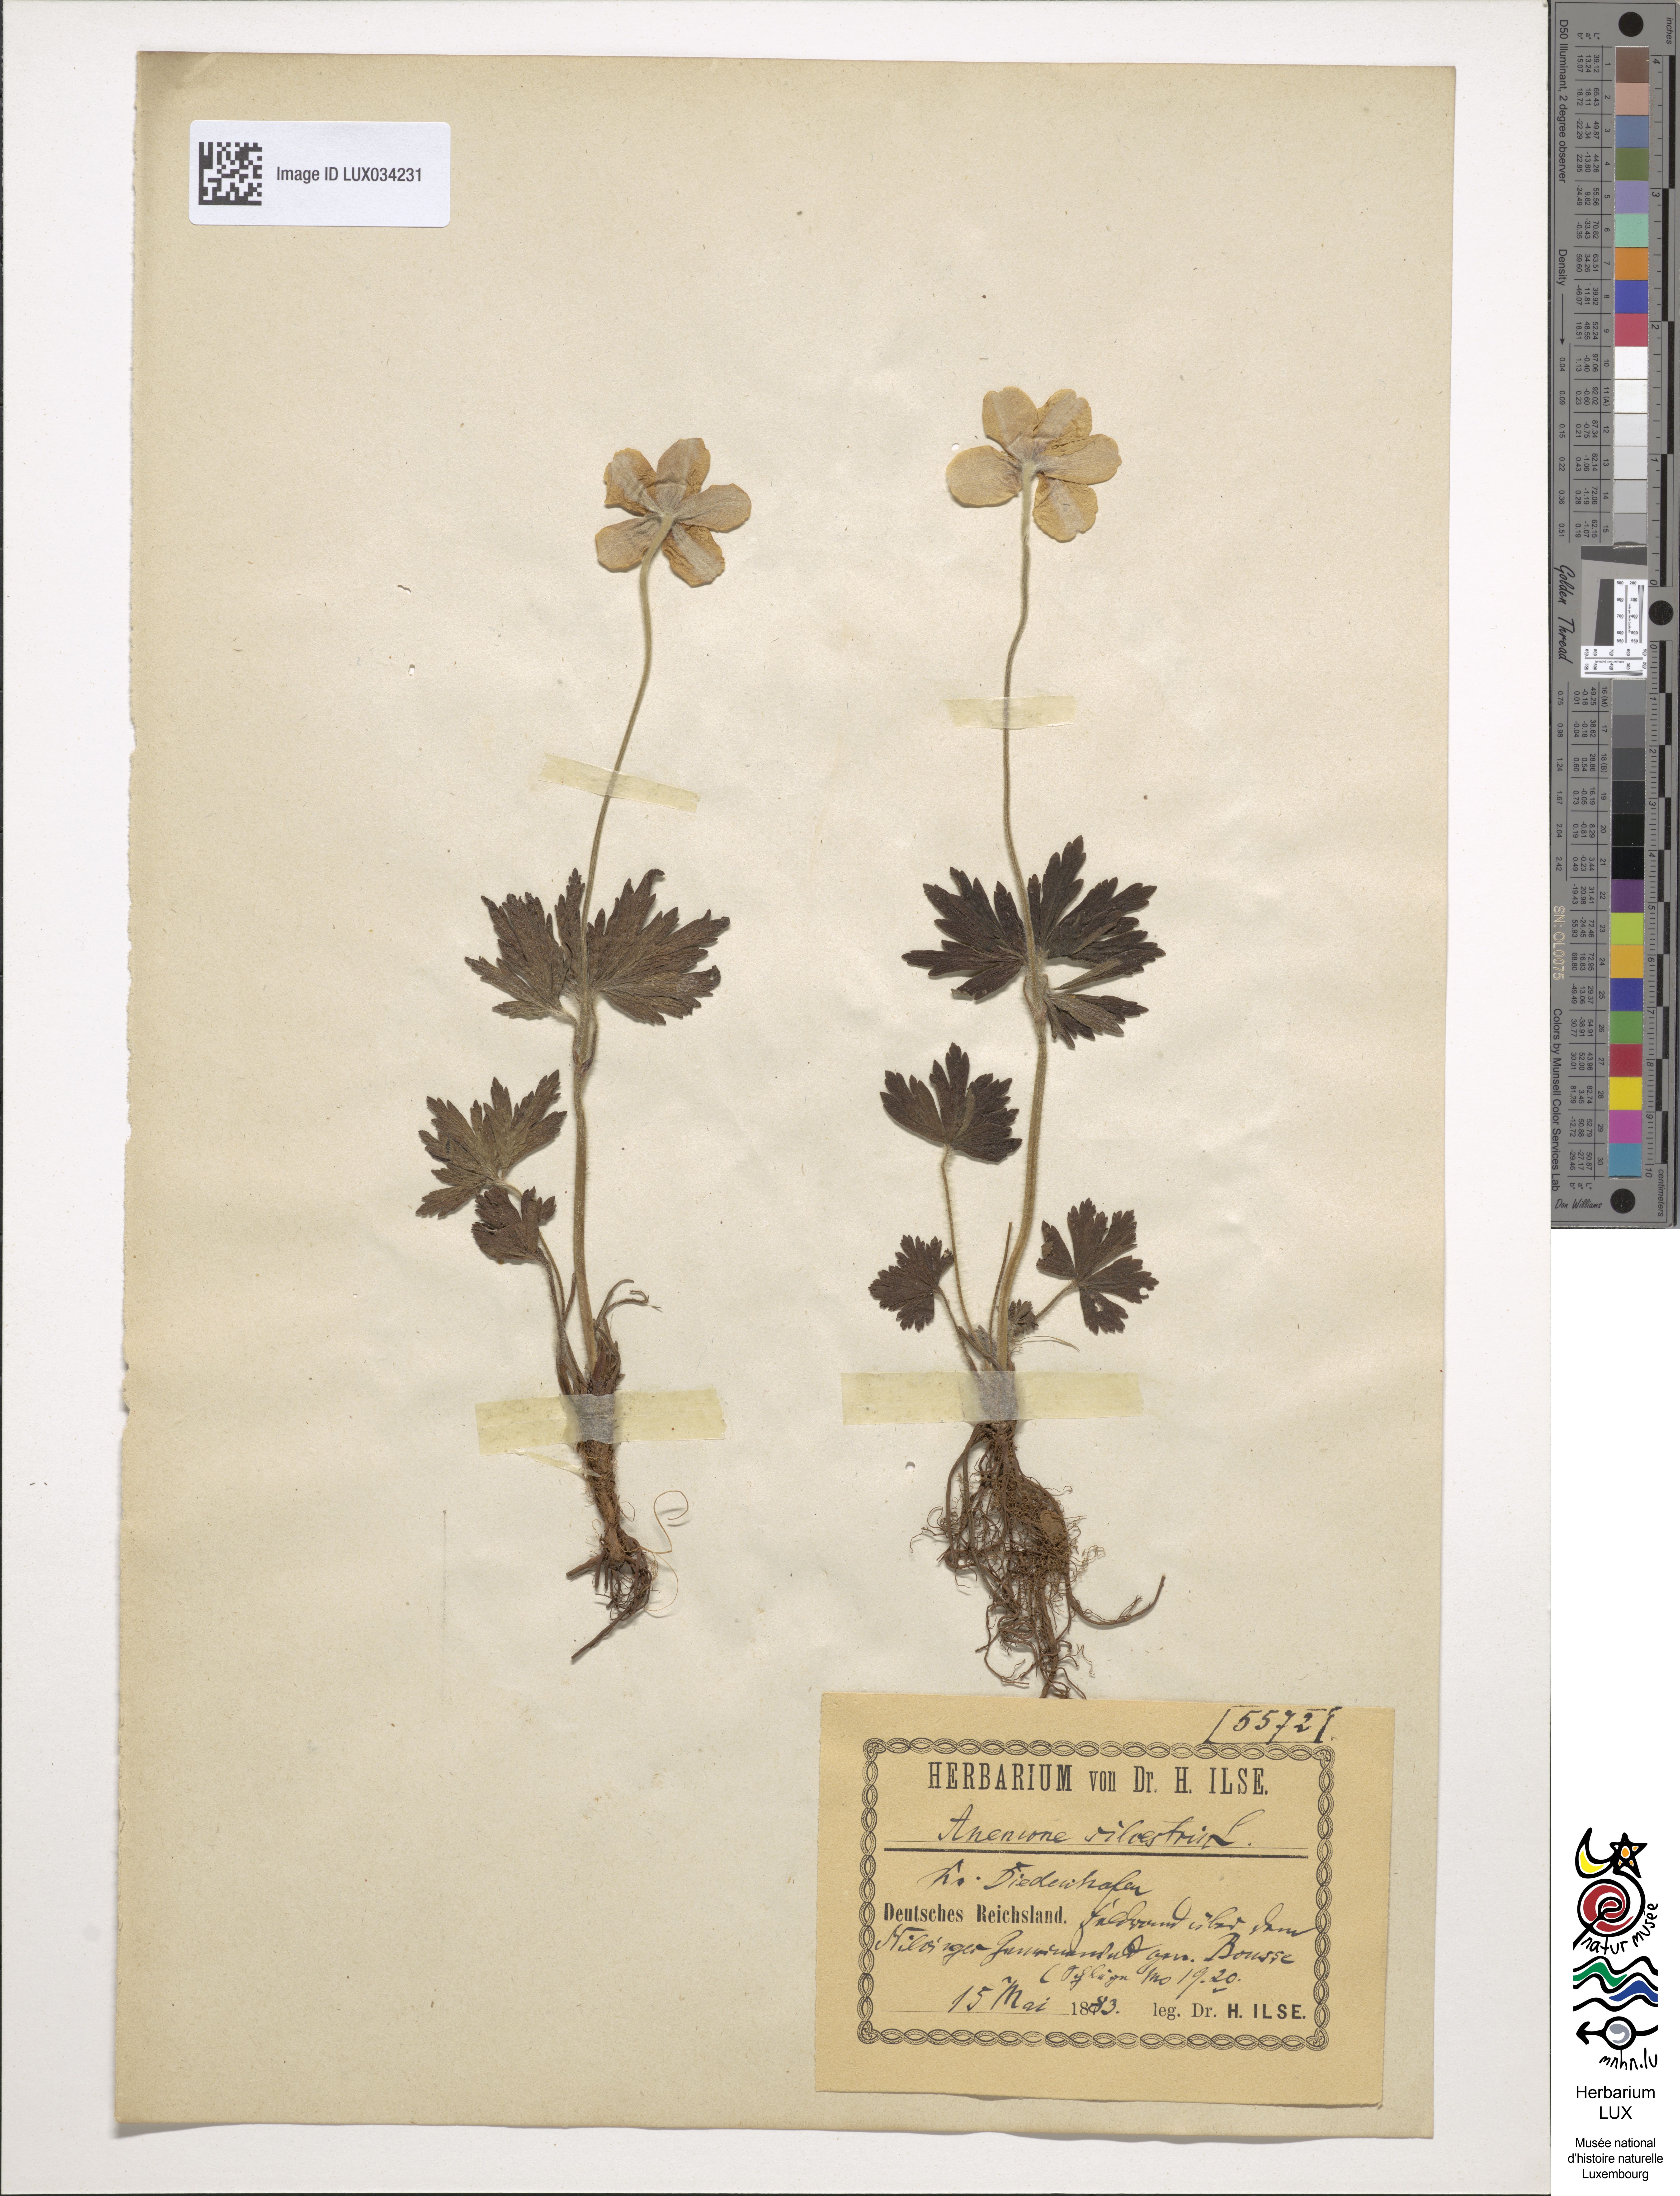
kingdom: Plantae
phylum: Tracheophyta
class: Magnoliopsida
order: Ranunculales
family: Ranunculaceae
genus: Anemone
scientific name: Anemone sylvestris
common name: Snowdrop anemone
